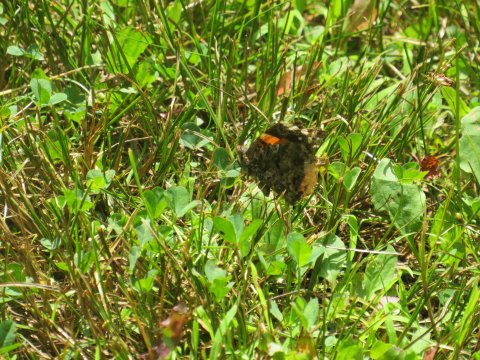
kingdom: Animalia
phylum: Arthropoda
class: Insecta
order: Lepidoptera
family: Nymphalidae
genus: Vanessa
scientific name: Vanessa atalanta
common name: Red Admiral
